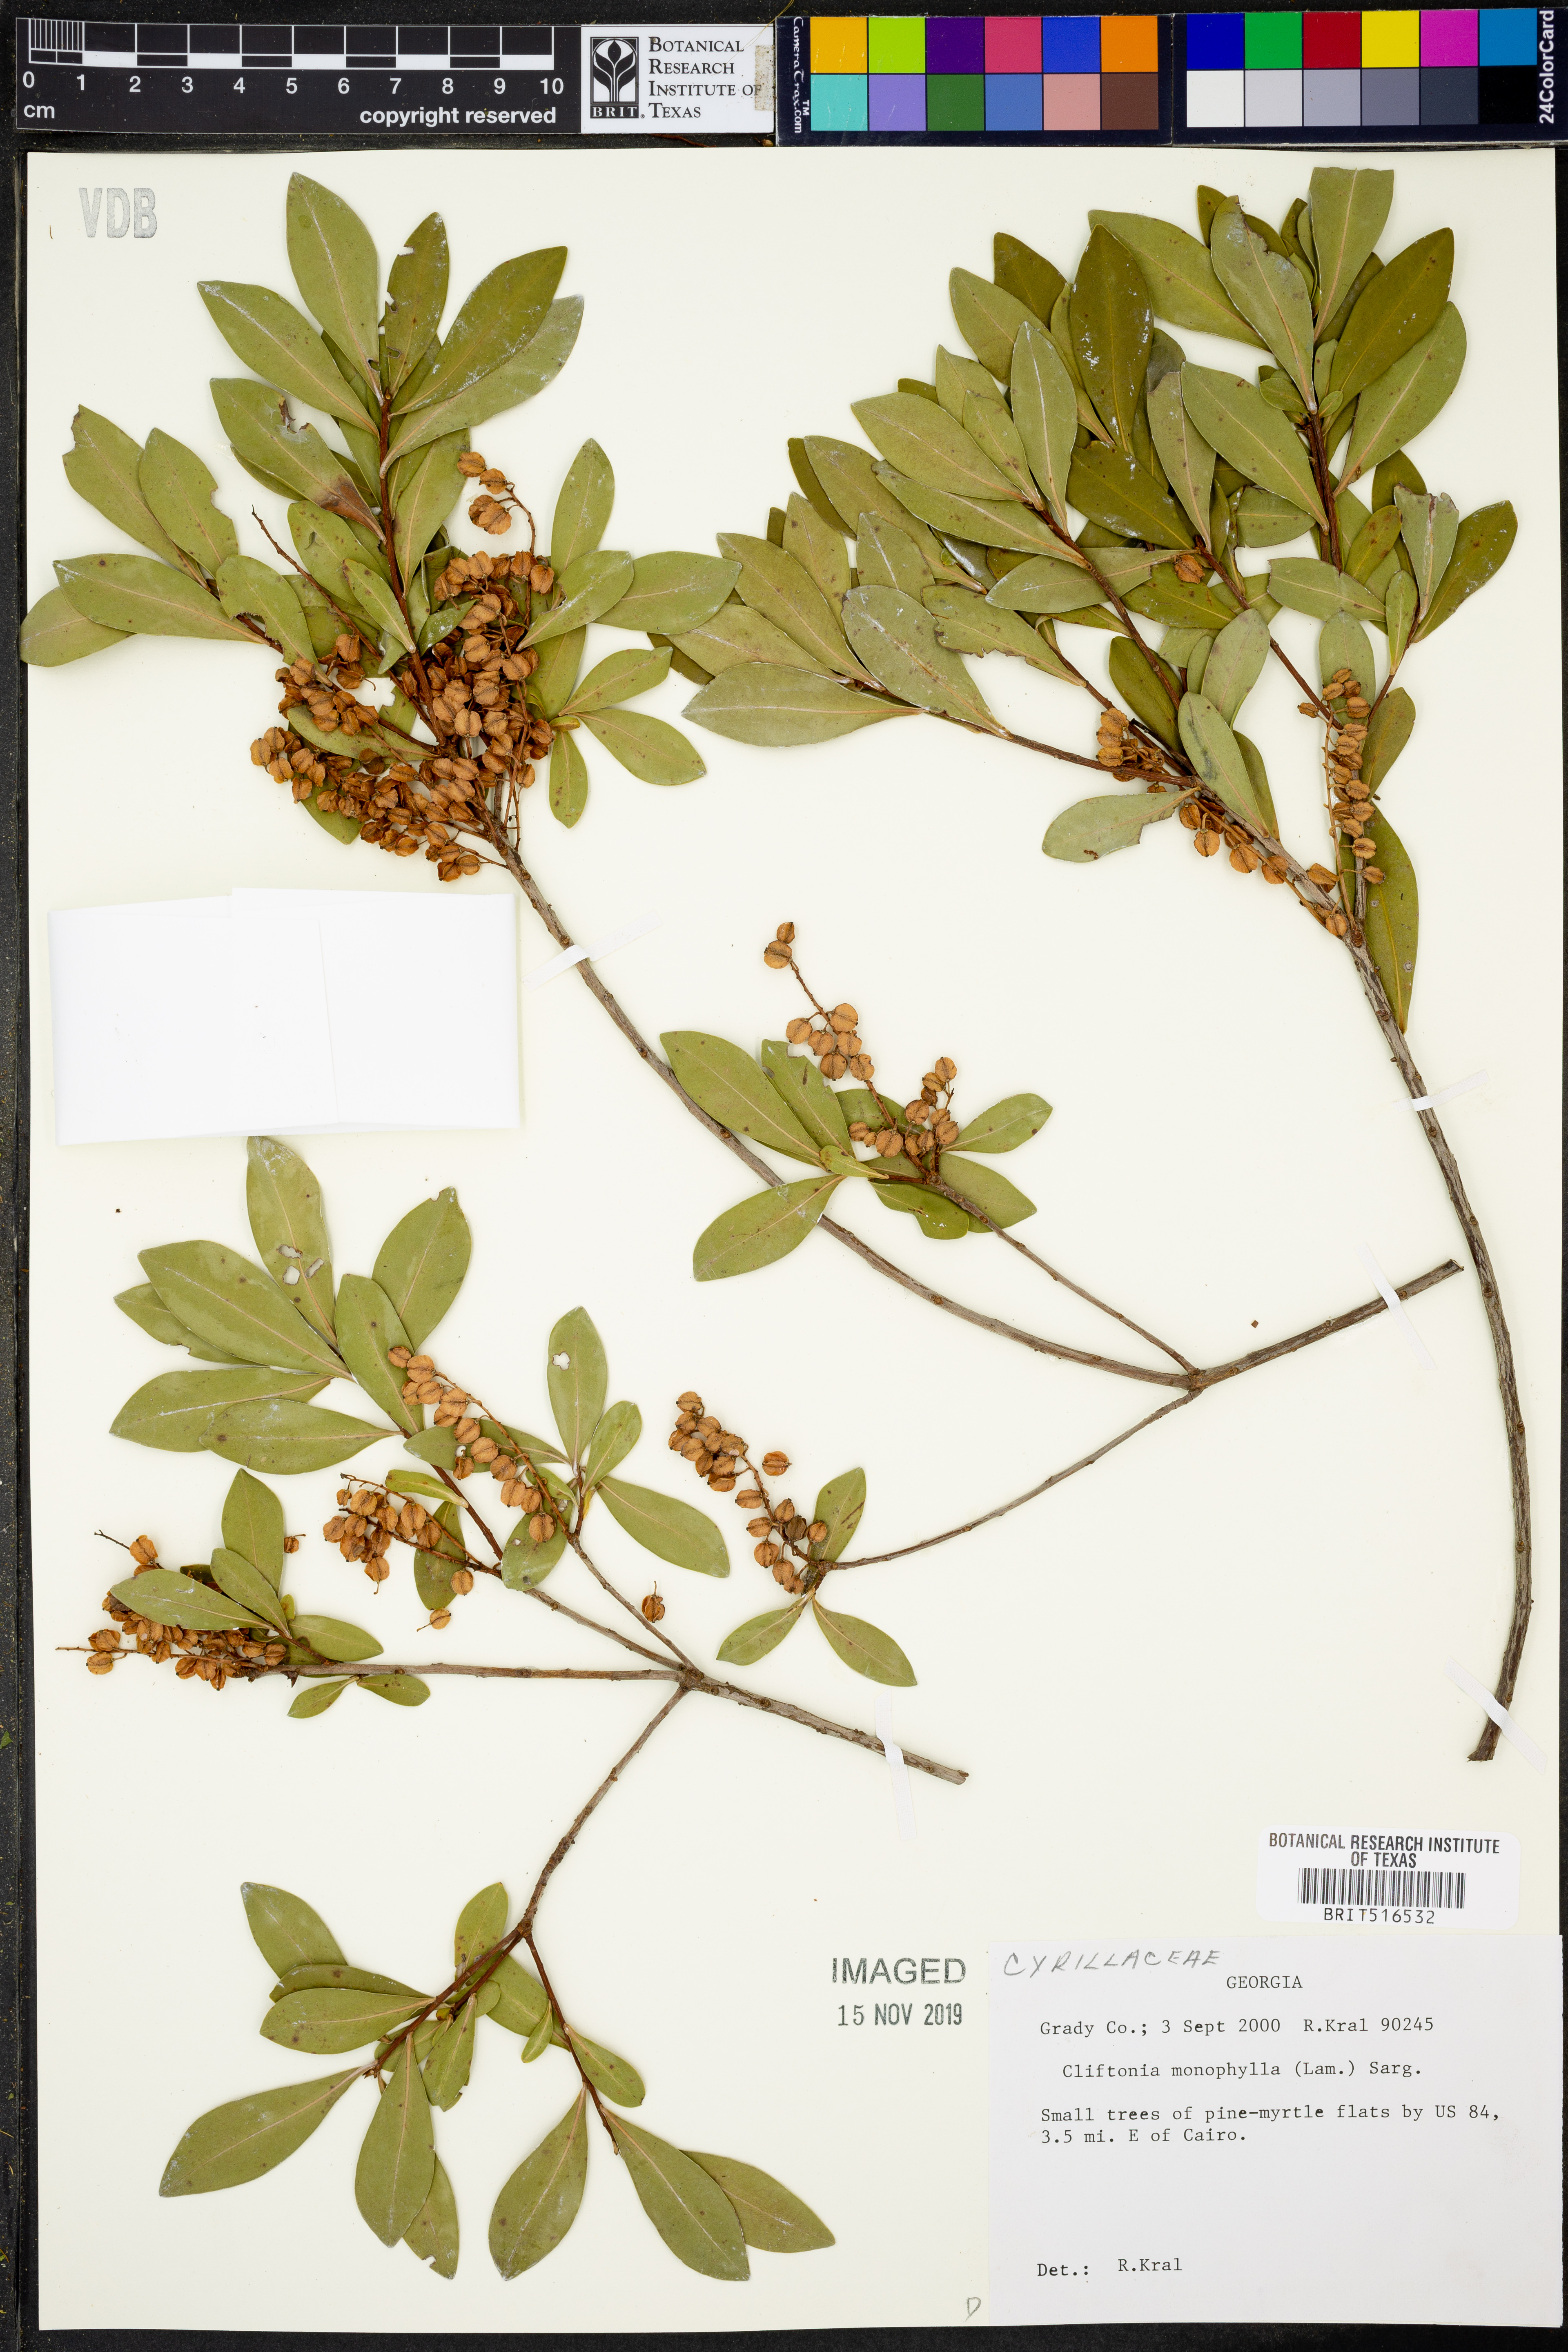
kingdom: Plantae
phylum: Tracheophyta
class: Magnoliopsida
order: Ericales
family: Cyrillaceae
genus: Cliftonia
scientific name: Cliftonia monophylla
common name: Titi
